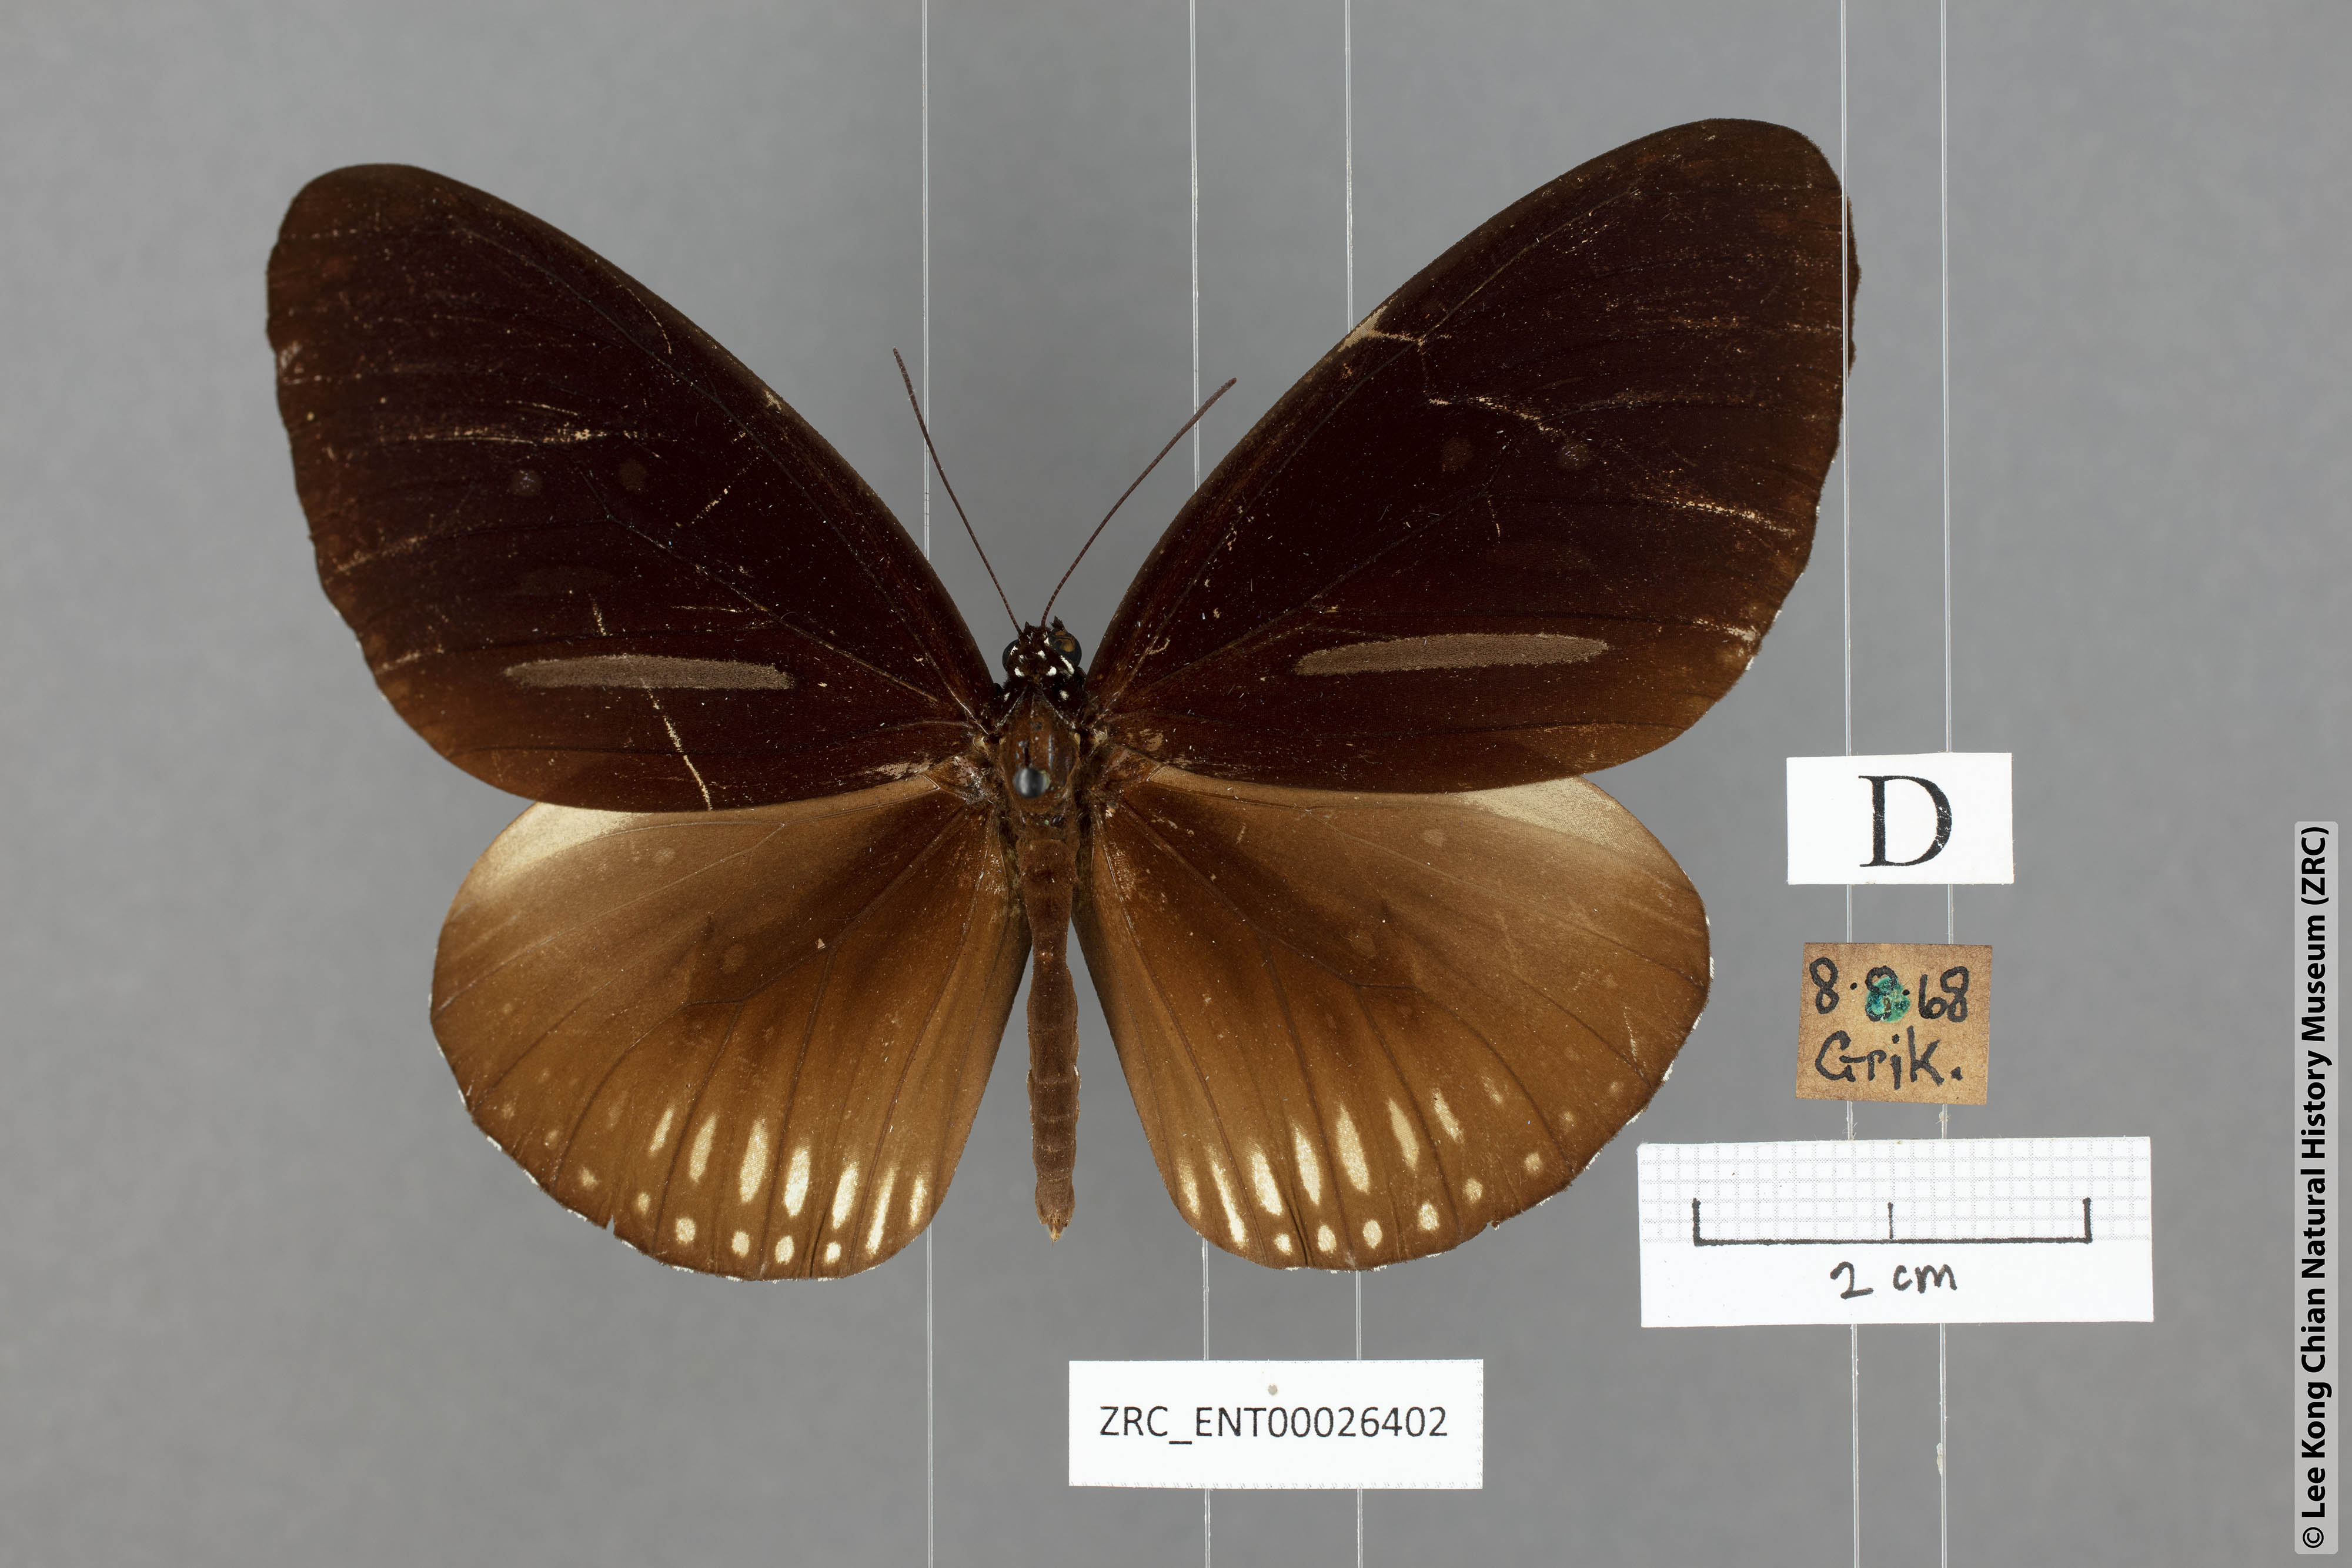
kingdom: Animalia
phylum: Arthropoda
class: Insecta
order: Lepidoptera
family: Nymphalidae
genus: Euploea
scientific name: Euploea algea
